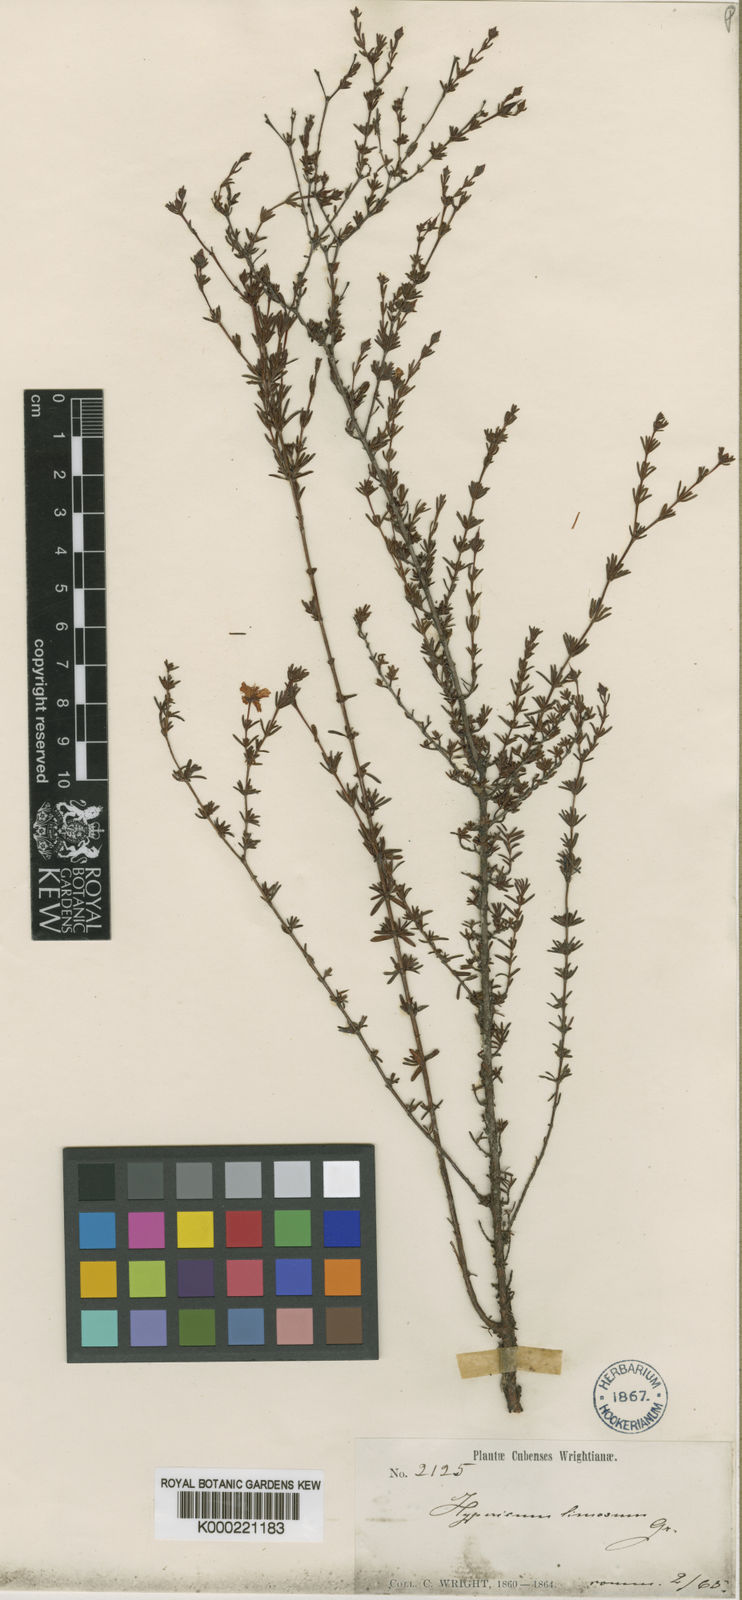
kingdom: Plantae
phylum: Tracheophyta
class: Magnoliopsida
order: Malpighiales
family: Hypericaceae
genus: Hypericum
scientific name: Hypericum limosum
